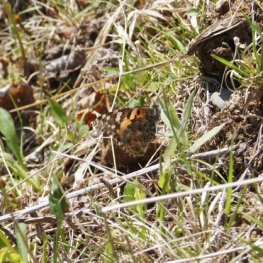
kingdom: Animalia
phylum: Arthropoda
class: Insecta
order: Lepidoptera
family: Nymphalidae
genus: Vanessa
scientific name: Vanessa cardui
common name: Painted Lady
